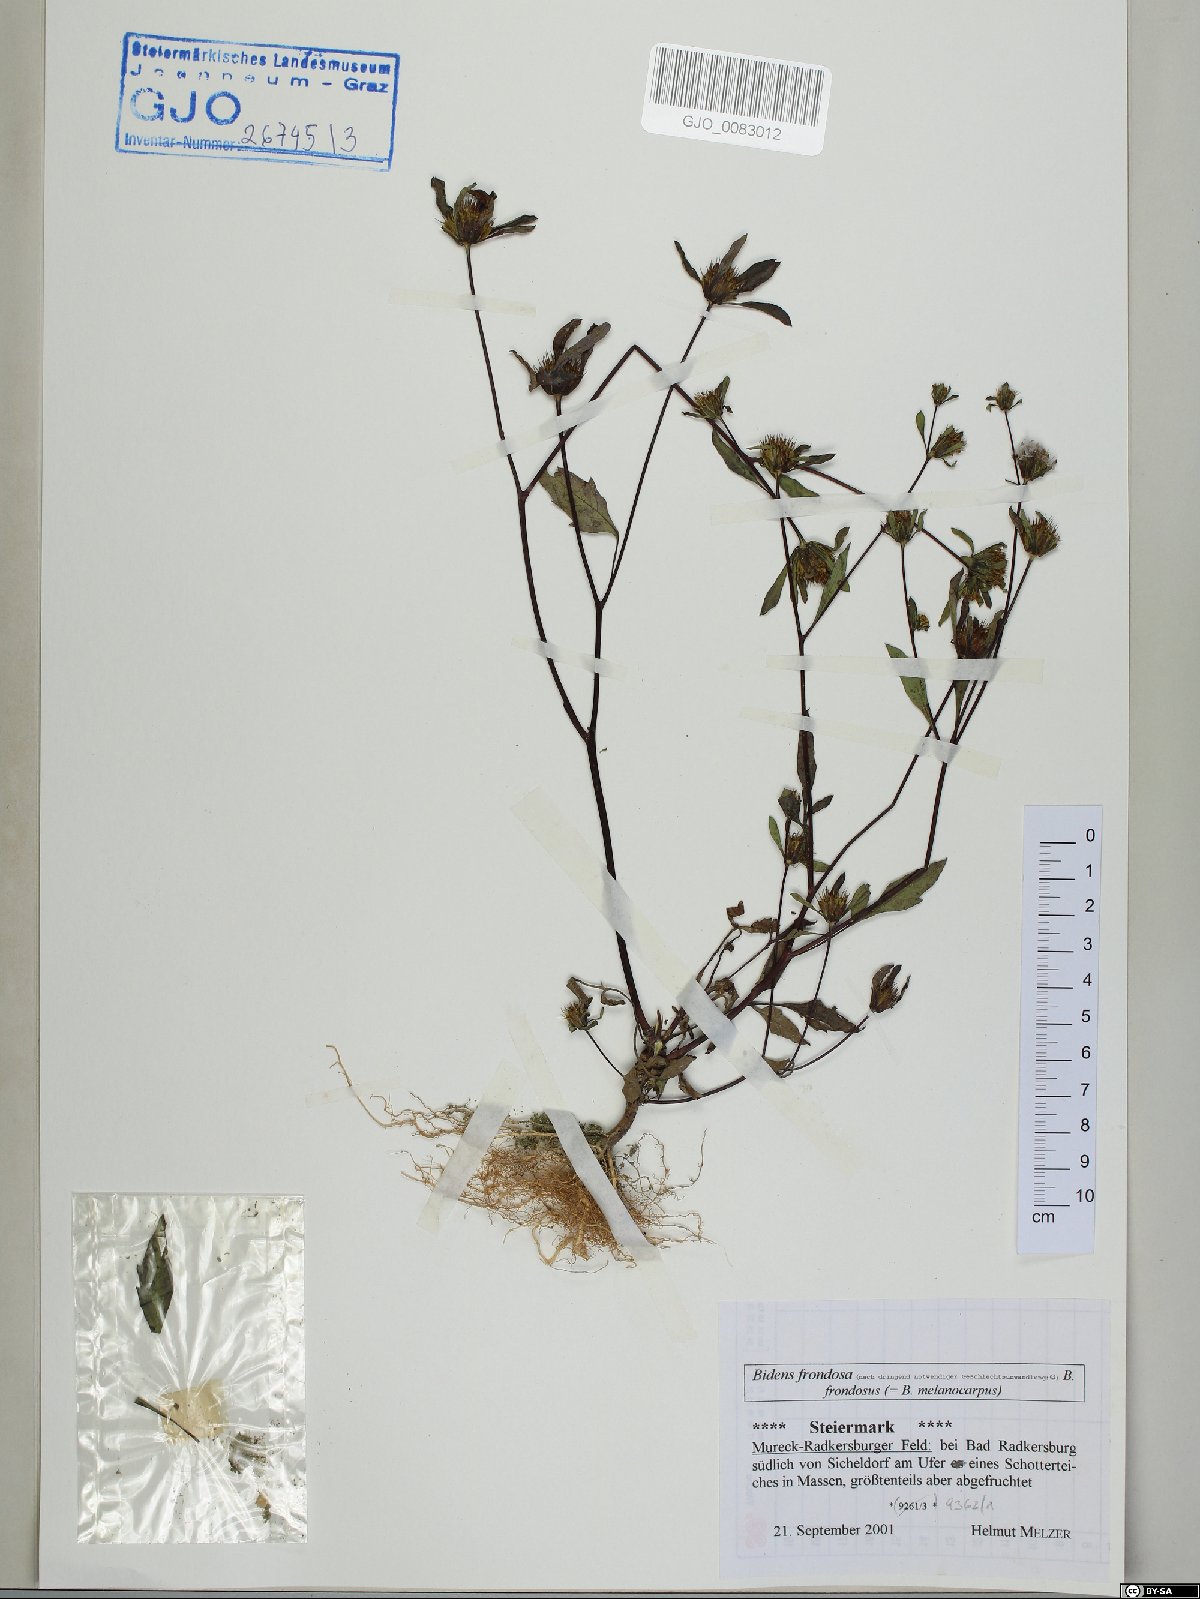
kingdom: Plantae
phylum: Tracheophyta
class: Magnoliopsida
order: Asterales
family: Asteraceae
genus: Bidens
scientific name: Bidens frondosa
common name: Beggarticks
